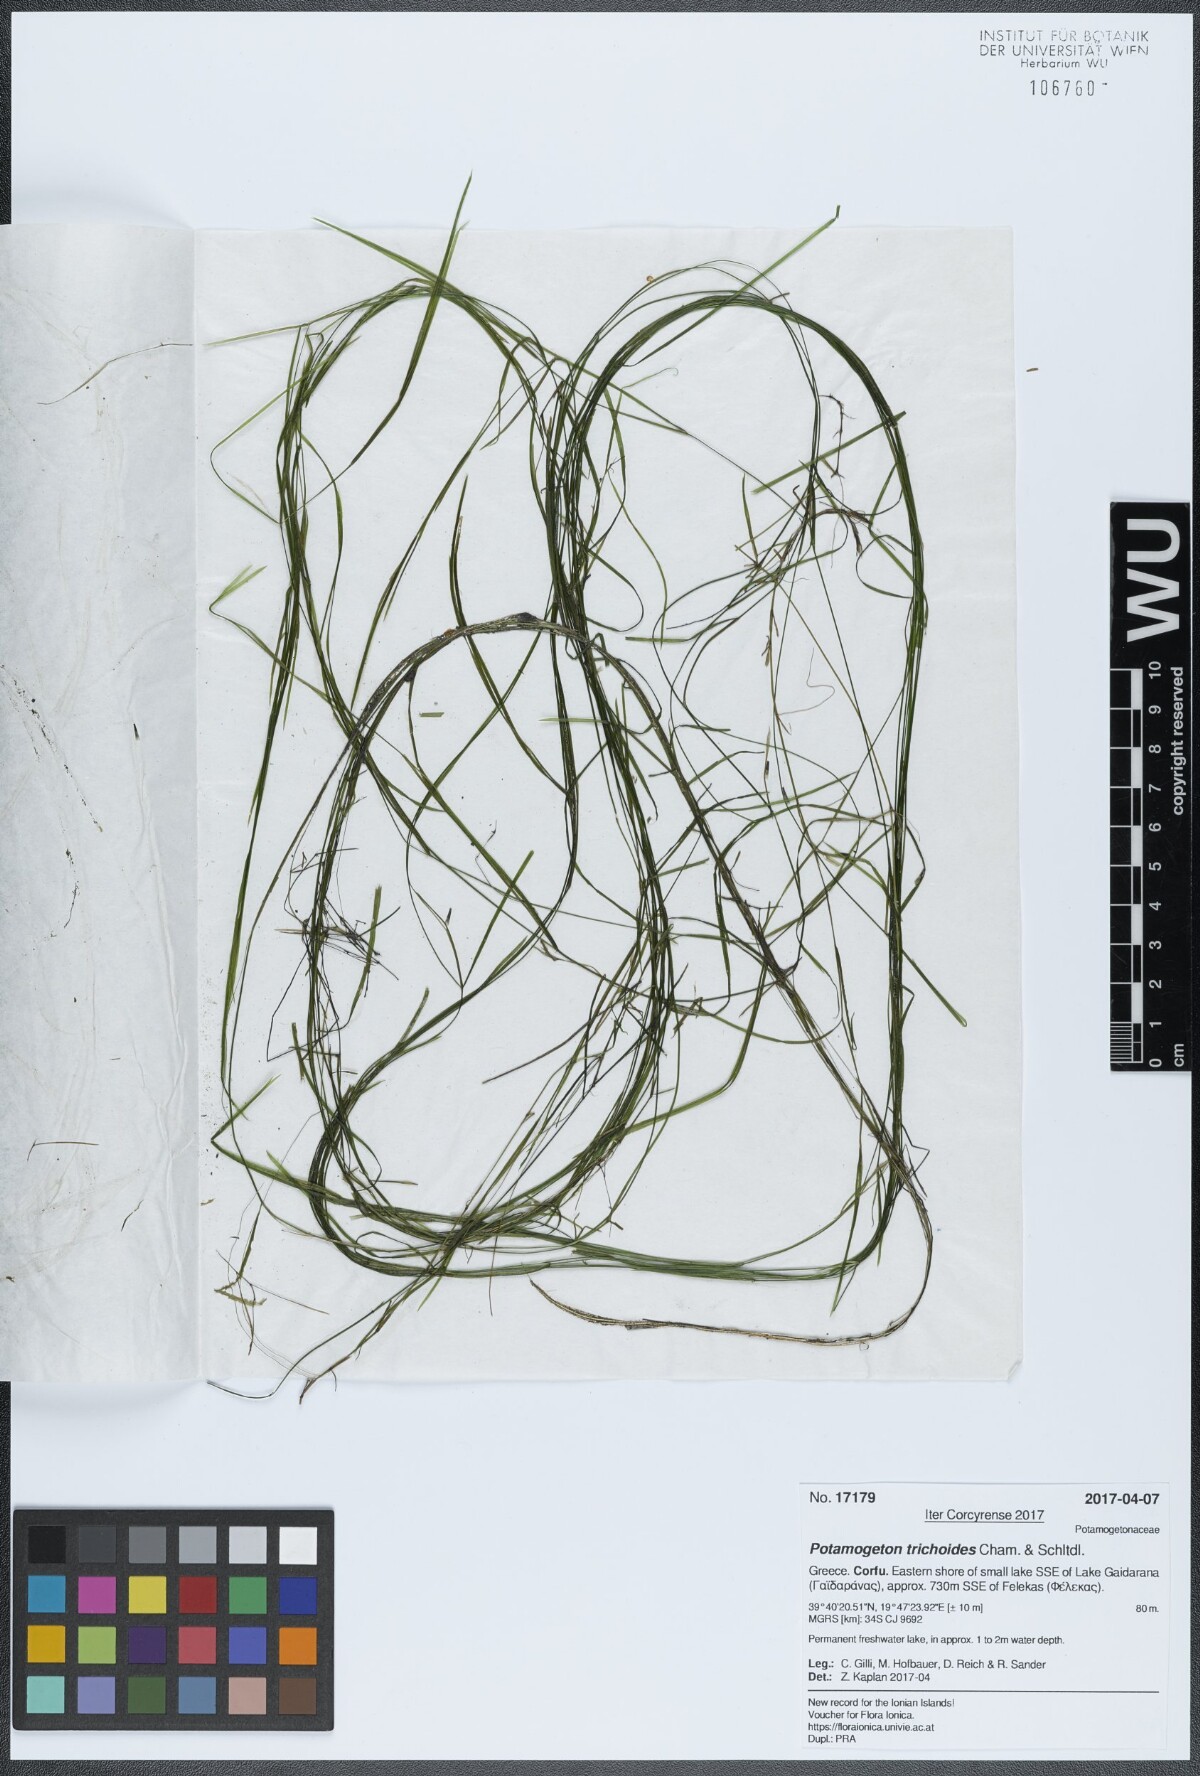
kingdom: Plantae
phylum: Tracheophyta
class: Liliopsida
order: Alismatales
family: Potamogetonaceae
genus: Potamogeton
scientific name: Potamogeton trichoides
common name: Hairlike pondweed
